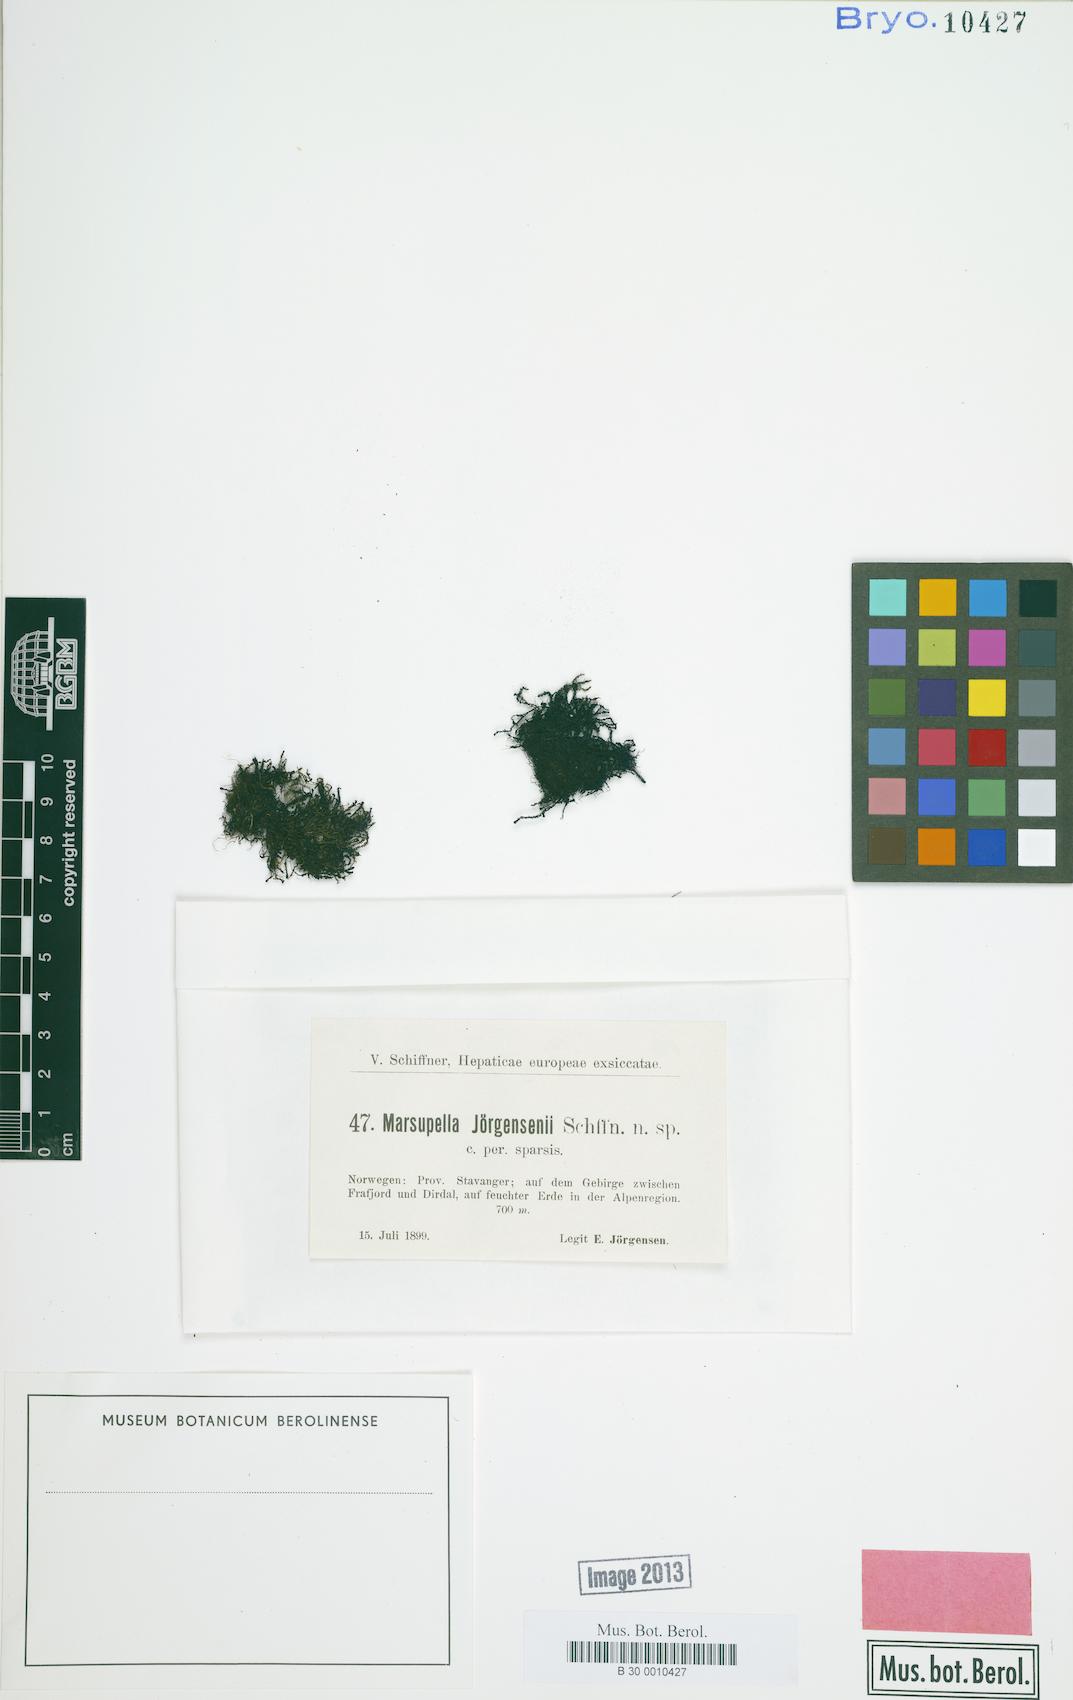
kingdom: Plantae
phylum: Marchantiophyta
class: Jungermanniopsida
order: Jungermanniales
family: Gymnomitriaceae
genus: Marsupella
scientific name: Marsupella
